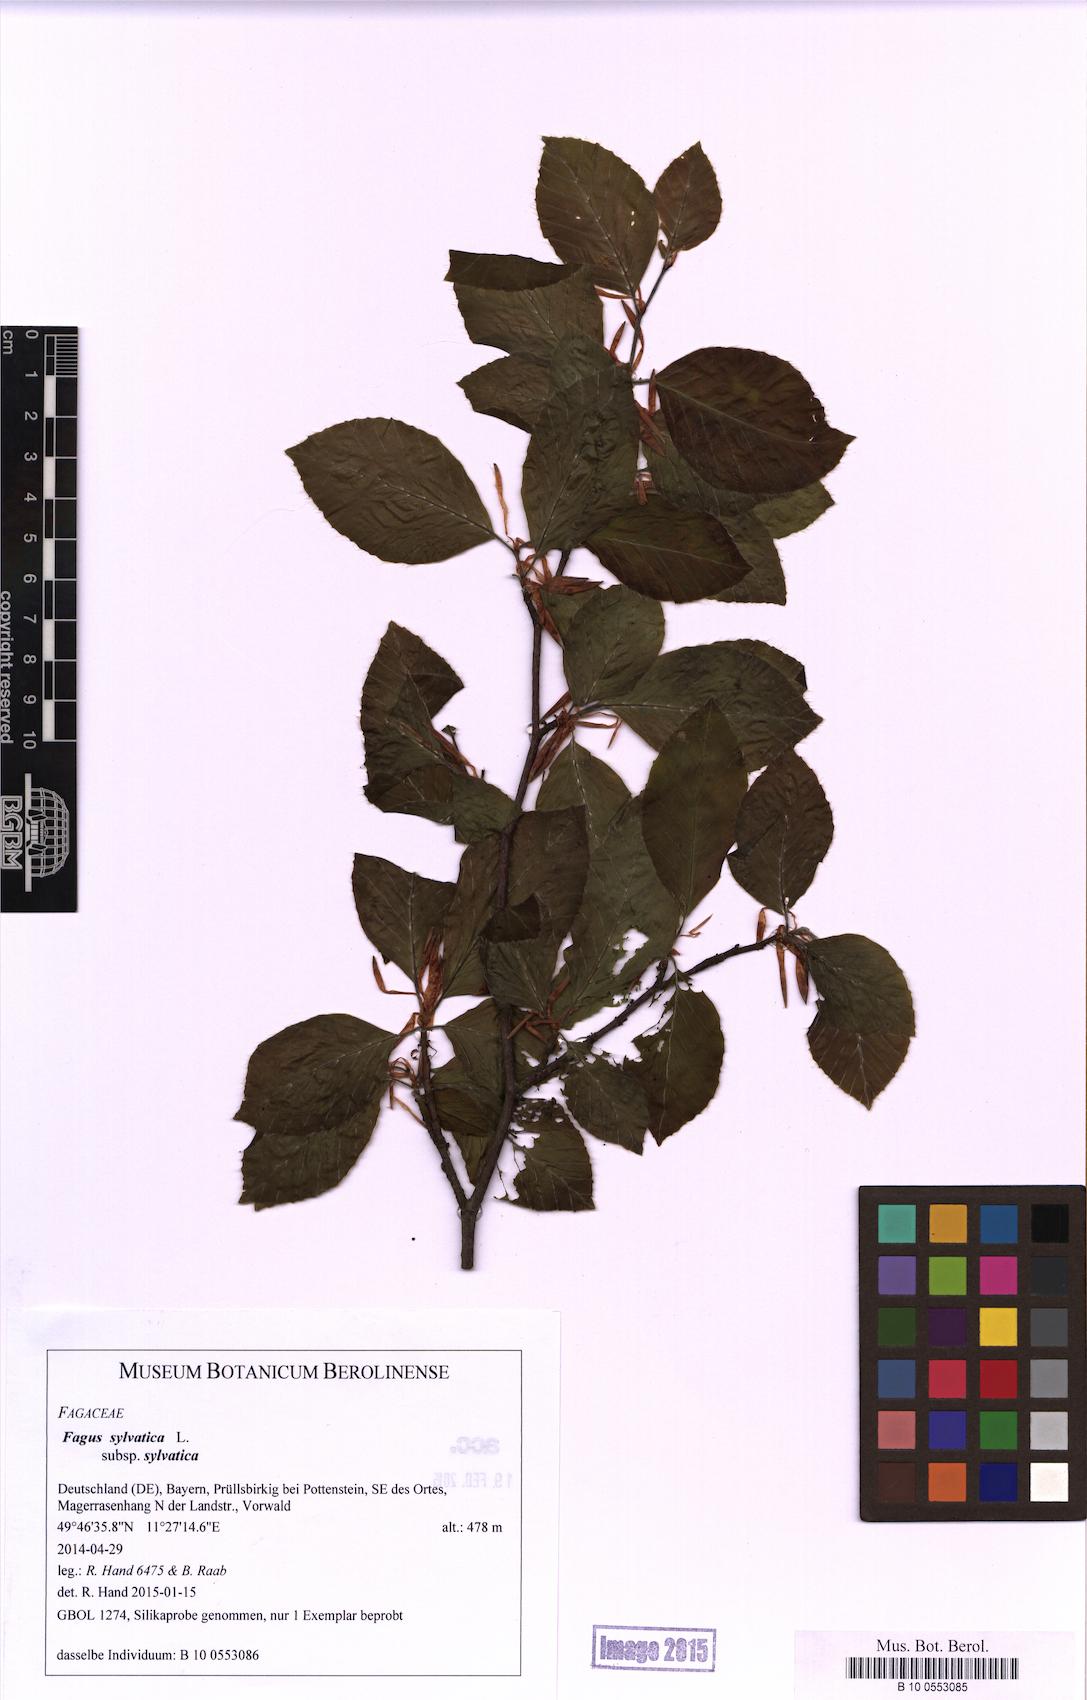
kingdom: Plantae
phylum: Tracheophyta
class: Magnoliopsida
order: Fagales
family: Fagaceae
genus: Fagus
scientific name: Fagus sylvatica
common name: Beech
